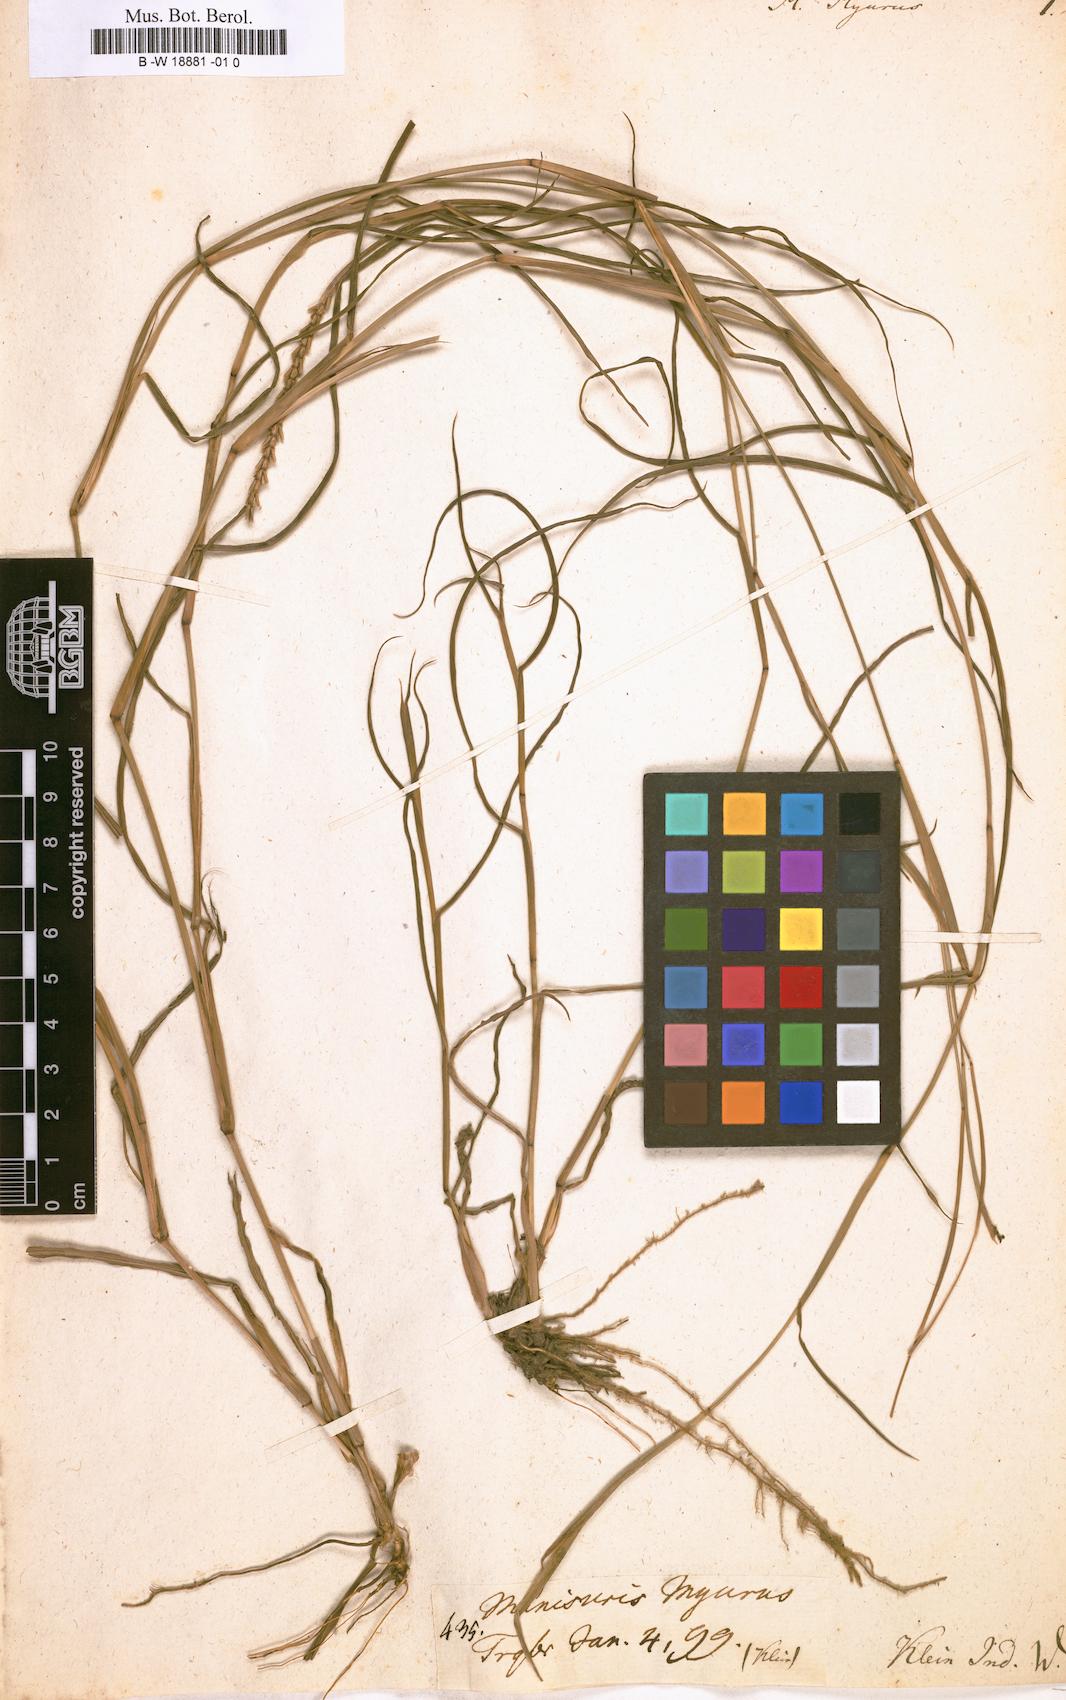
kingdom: Plantae
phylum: Tracheophyta
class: Liliopsida
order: Poales
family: Poaceae
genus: Manisuris
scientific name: Manisuris myurus
